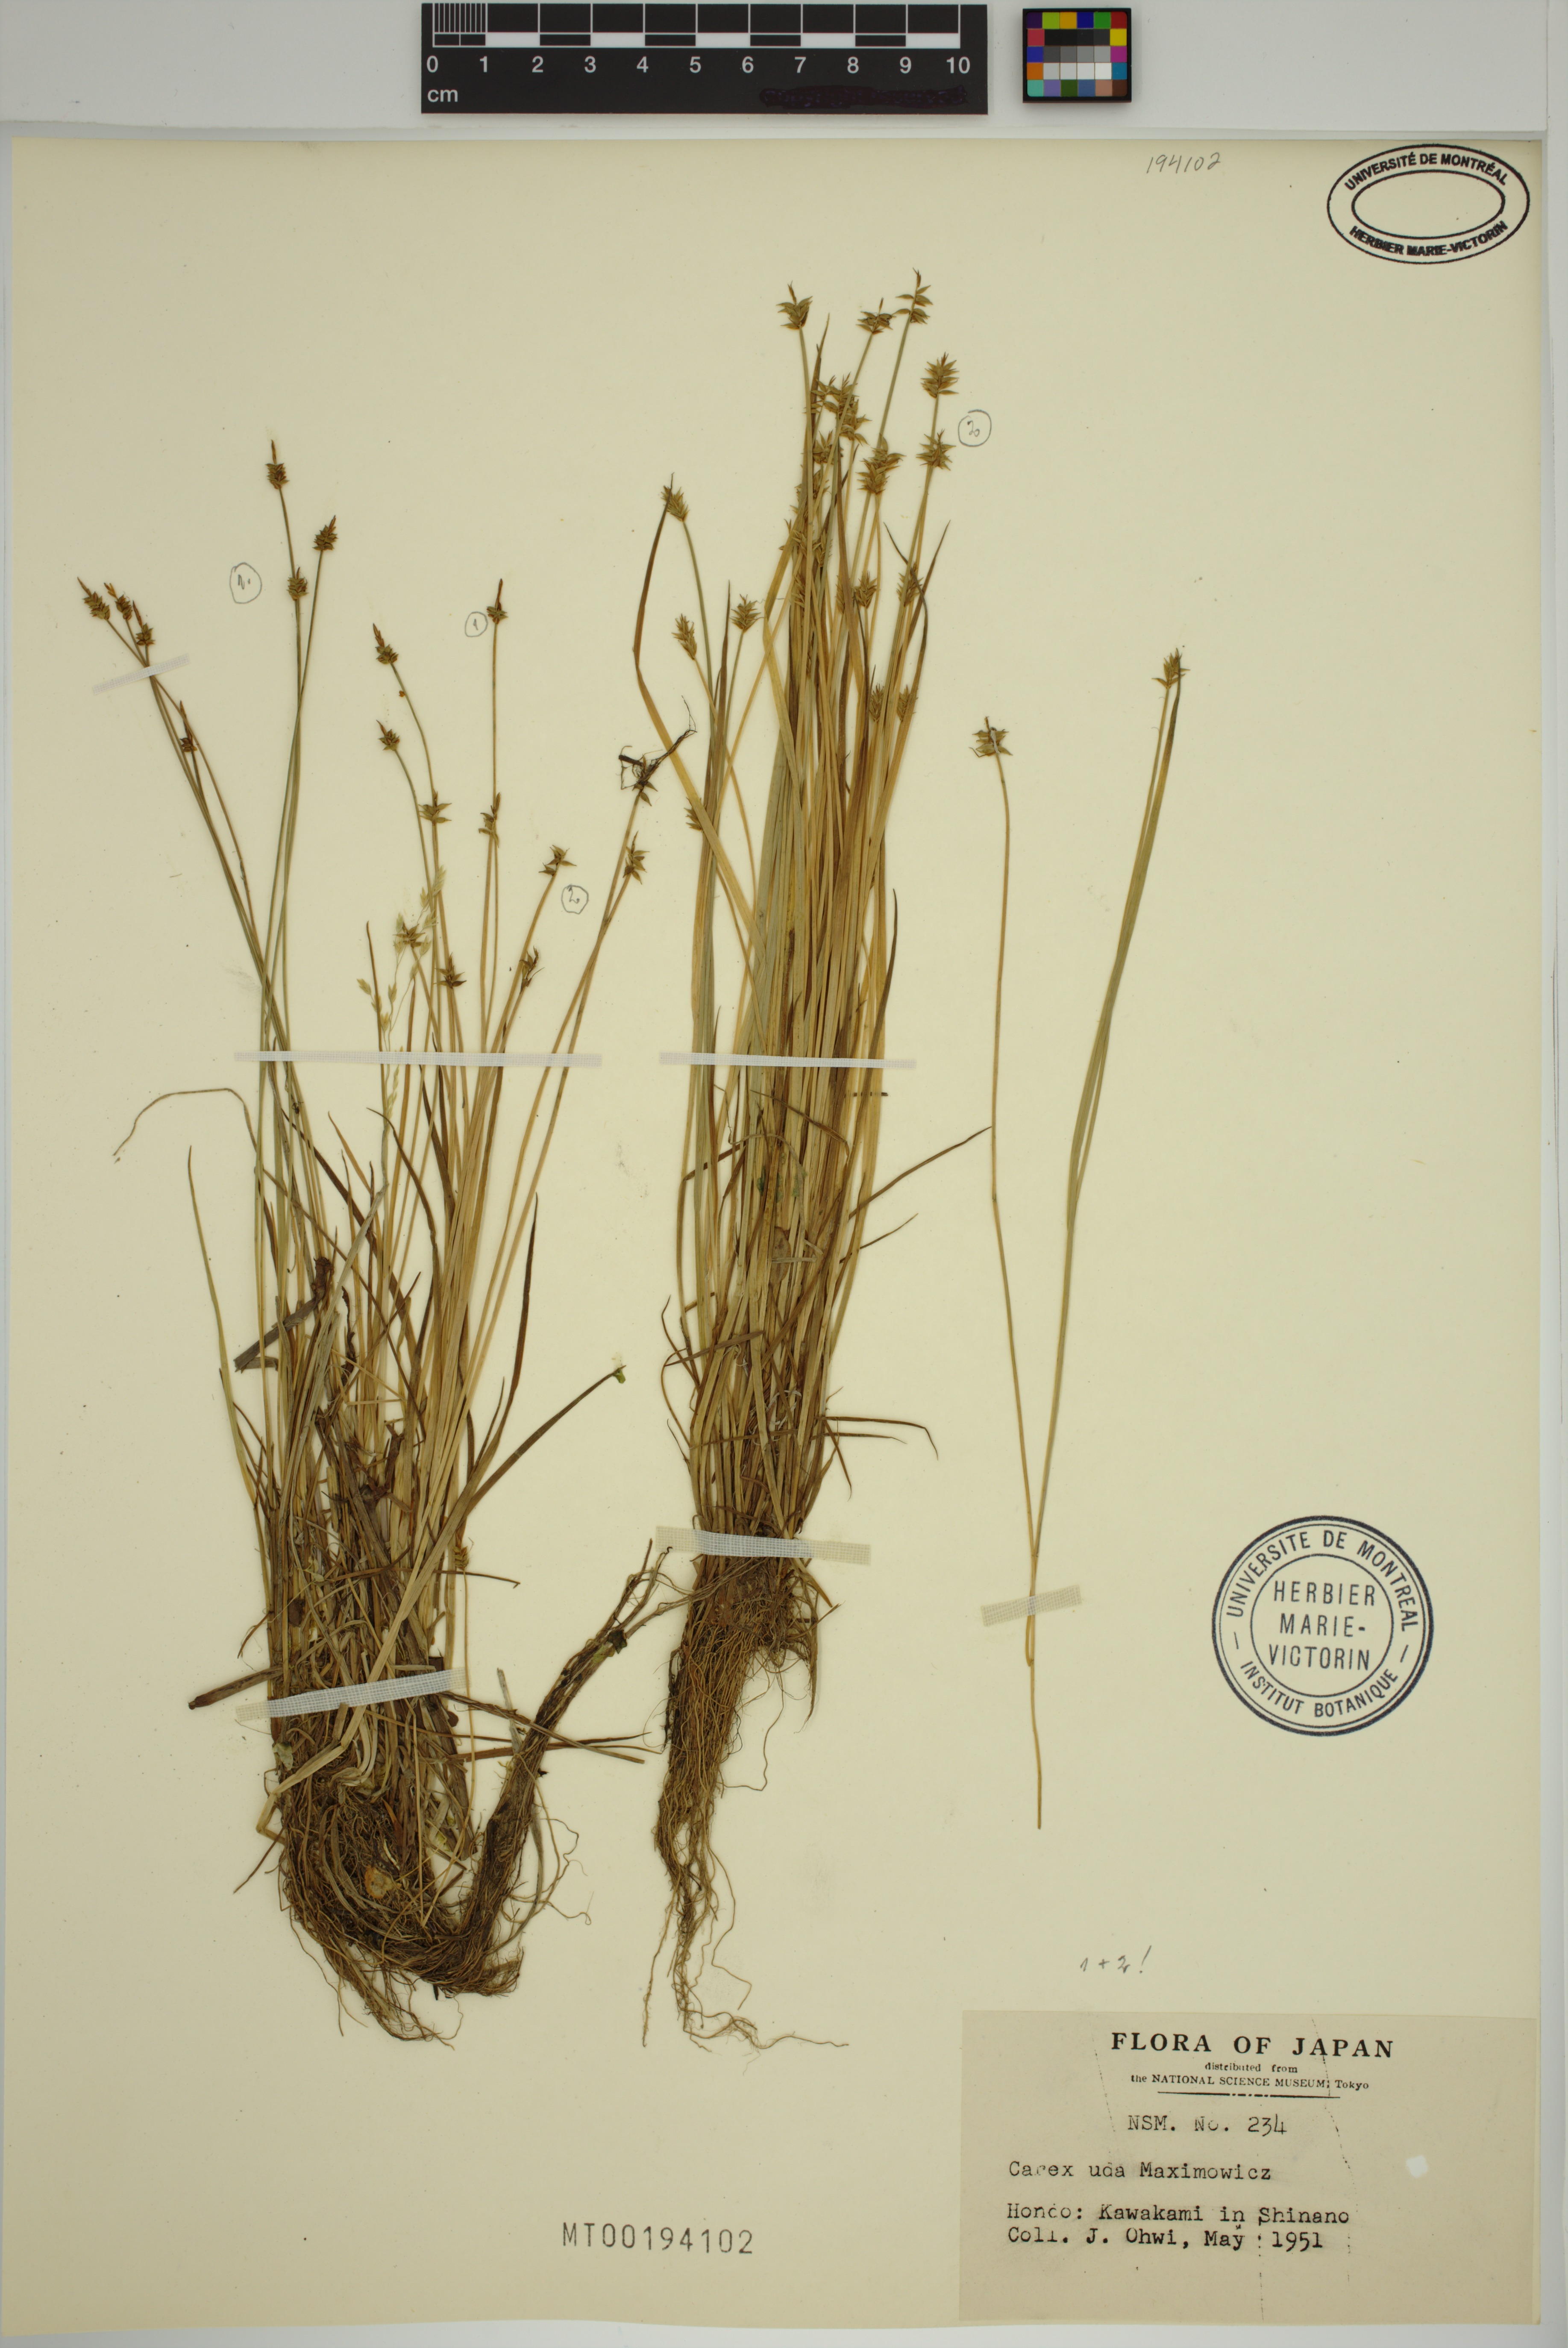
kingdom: Plantae
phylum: Tracheophyta
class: Liliopsida
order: Poales
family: Cyperaceae
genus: Carex
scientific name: Carex uda
